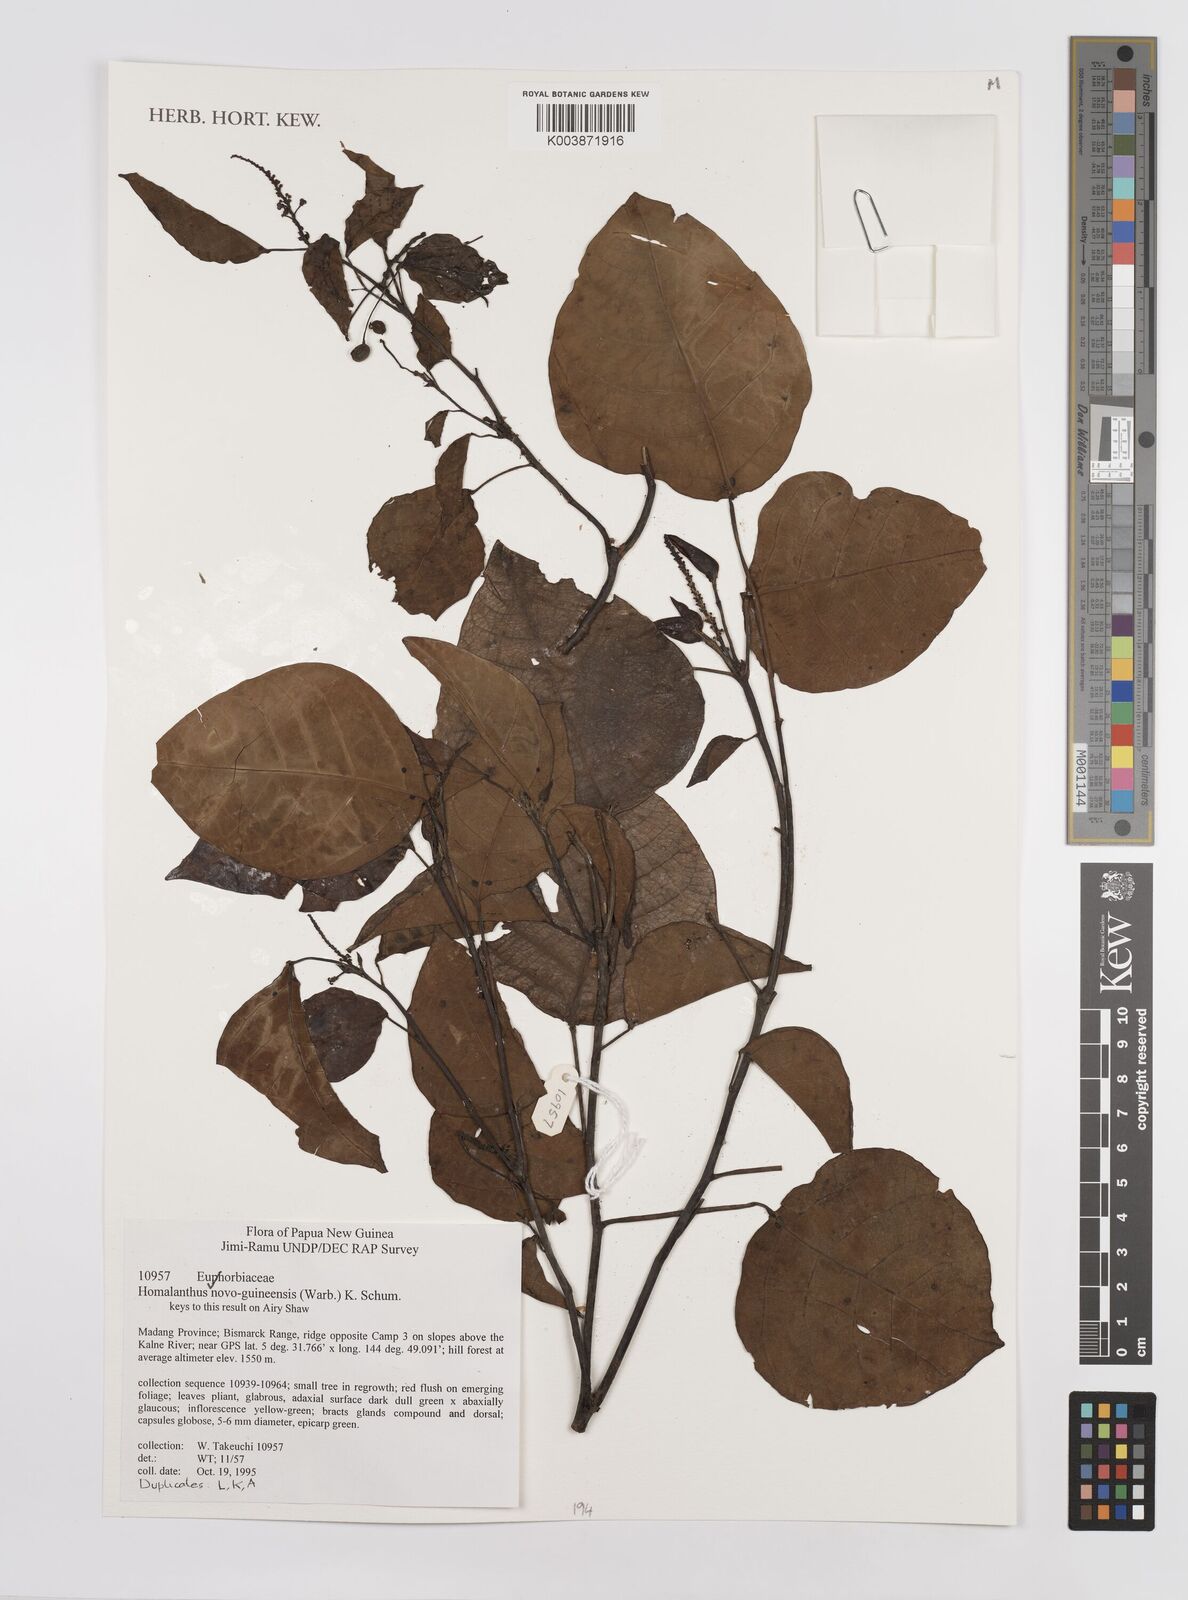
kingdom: Plantae
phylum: Tracheophyta
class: Magnoliopsida
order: Malpighiales
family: Euphorbiaceae
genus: Homalanthus
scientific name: Homalanthus novoguineensis
